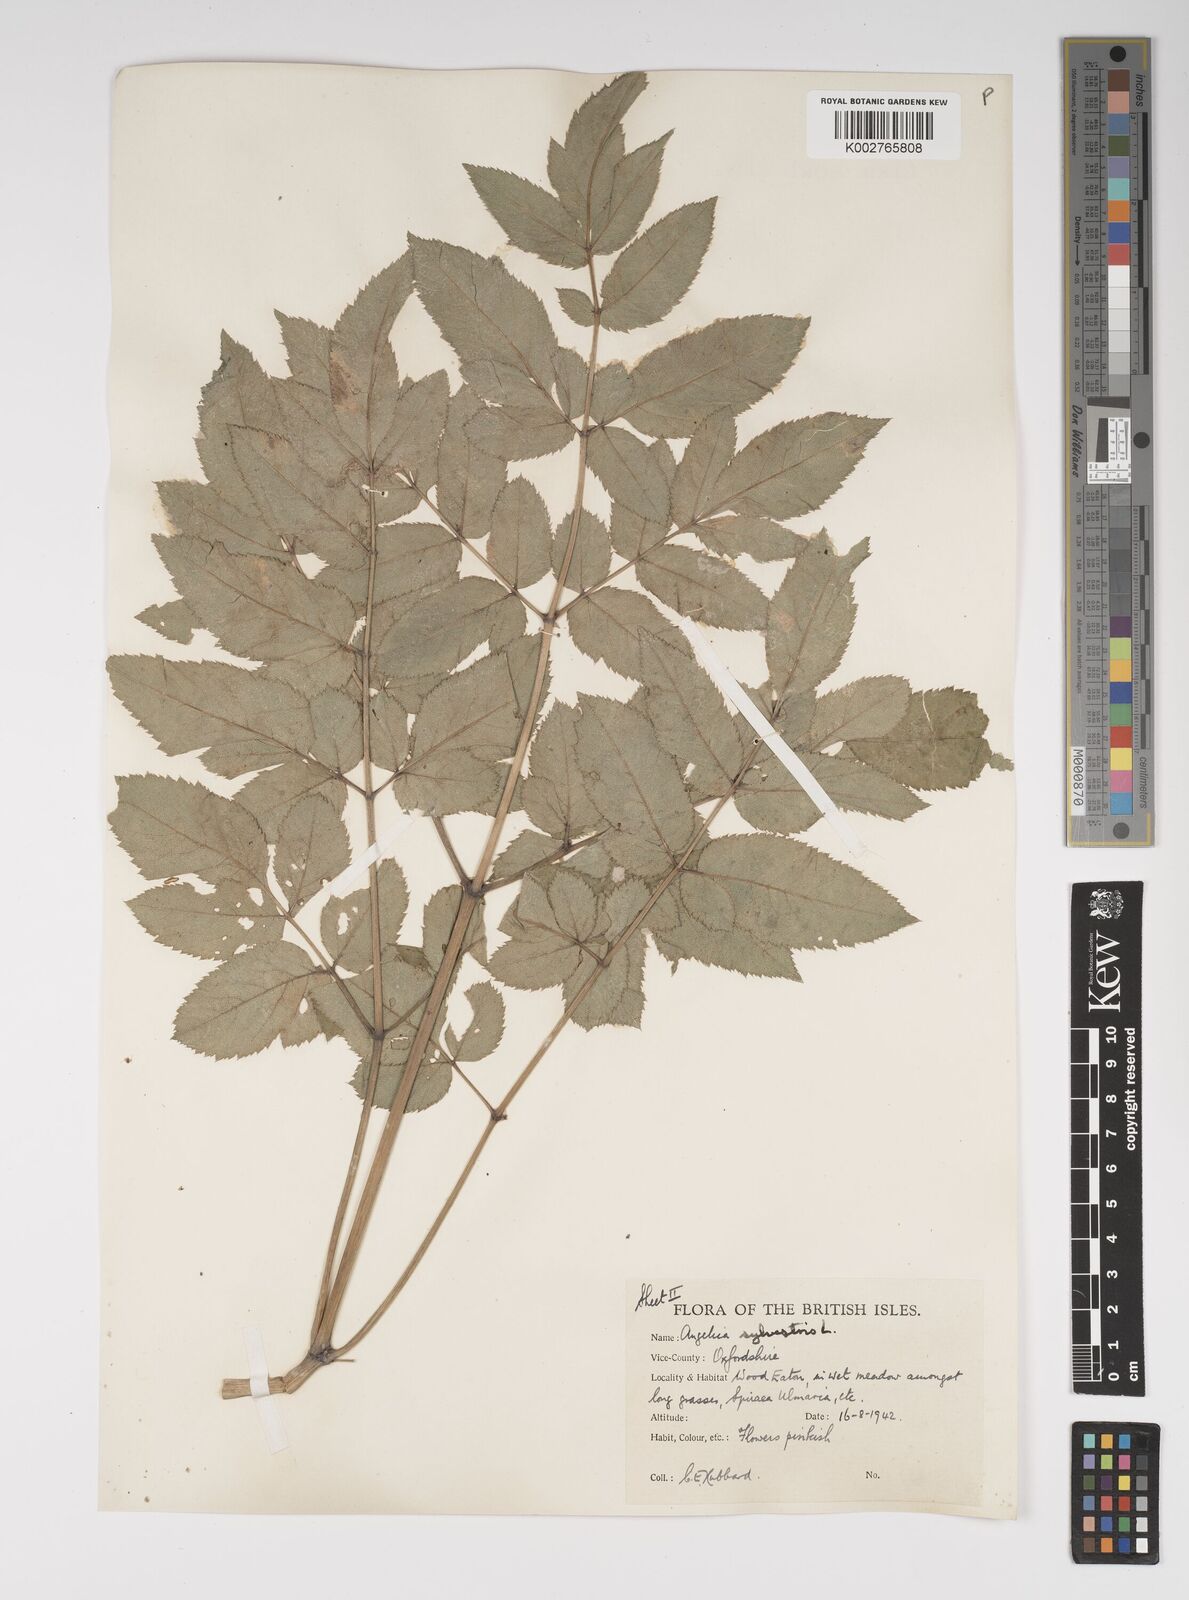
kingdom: Plantae
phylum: Tracheophyta
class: Magnoliopsida
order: Apiales
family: Apiaceae
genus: Angelica
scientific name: Angelica sylvestris
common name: Wild angelica
